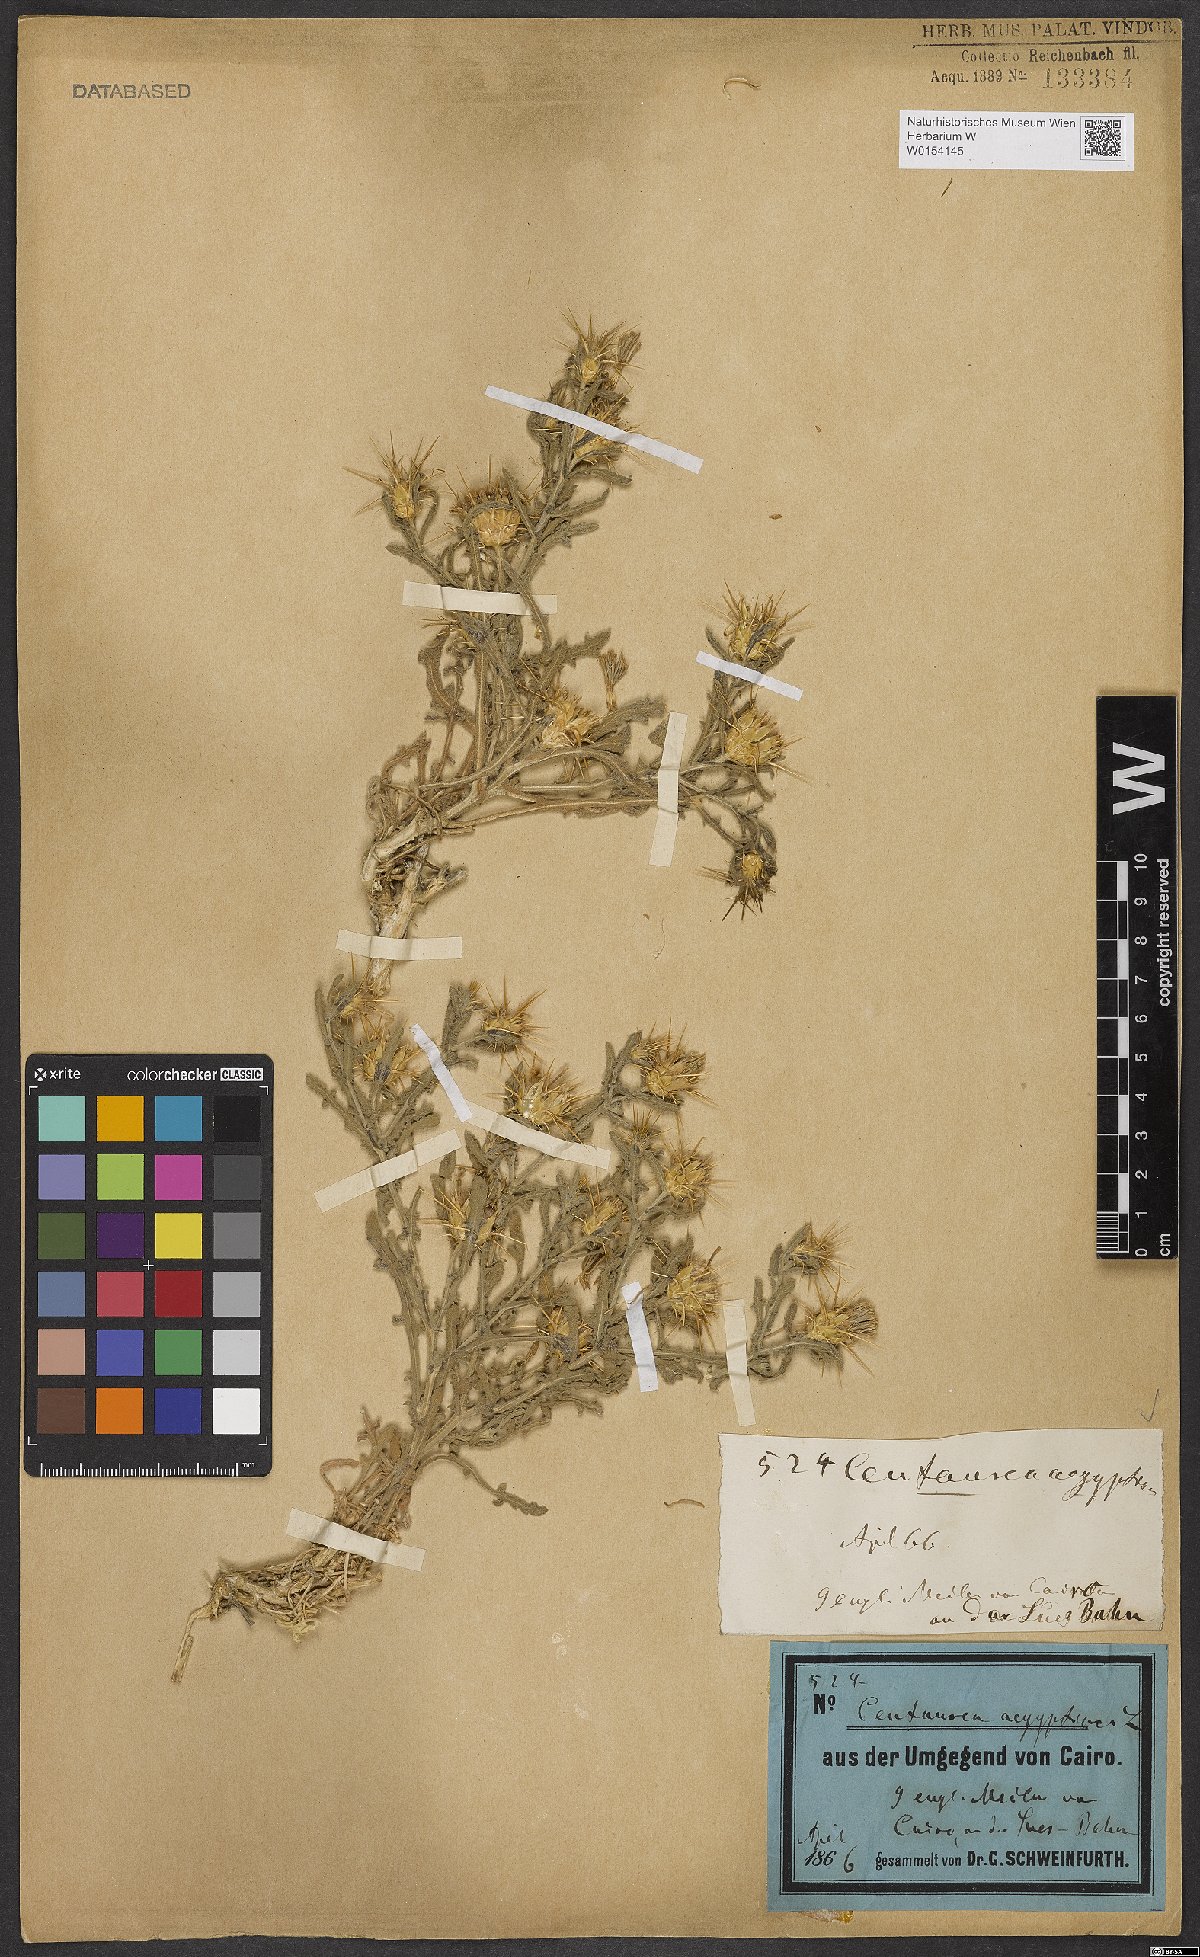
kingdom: Plantae
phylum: Tracheophyta
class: Magnoliopsida
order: Asterales
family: Asteraceae
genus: Centaurea
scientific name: Centaurea aegyptiaca
